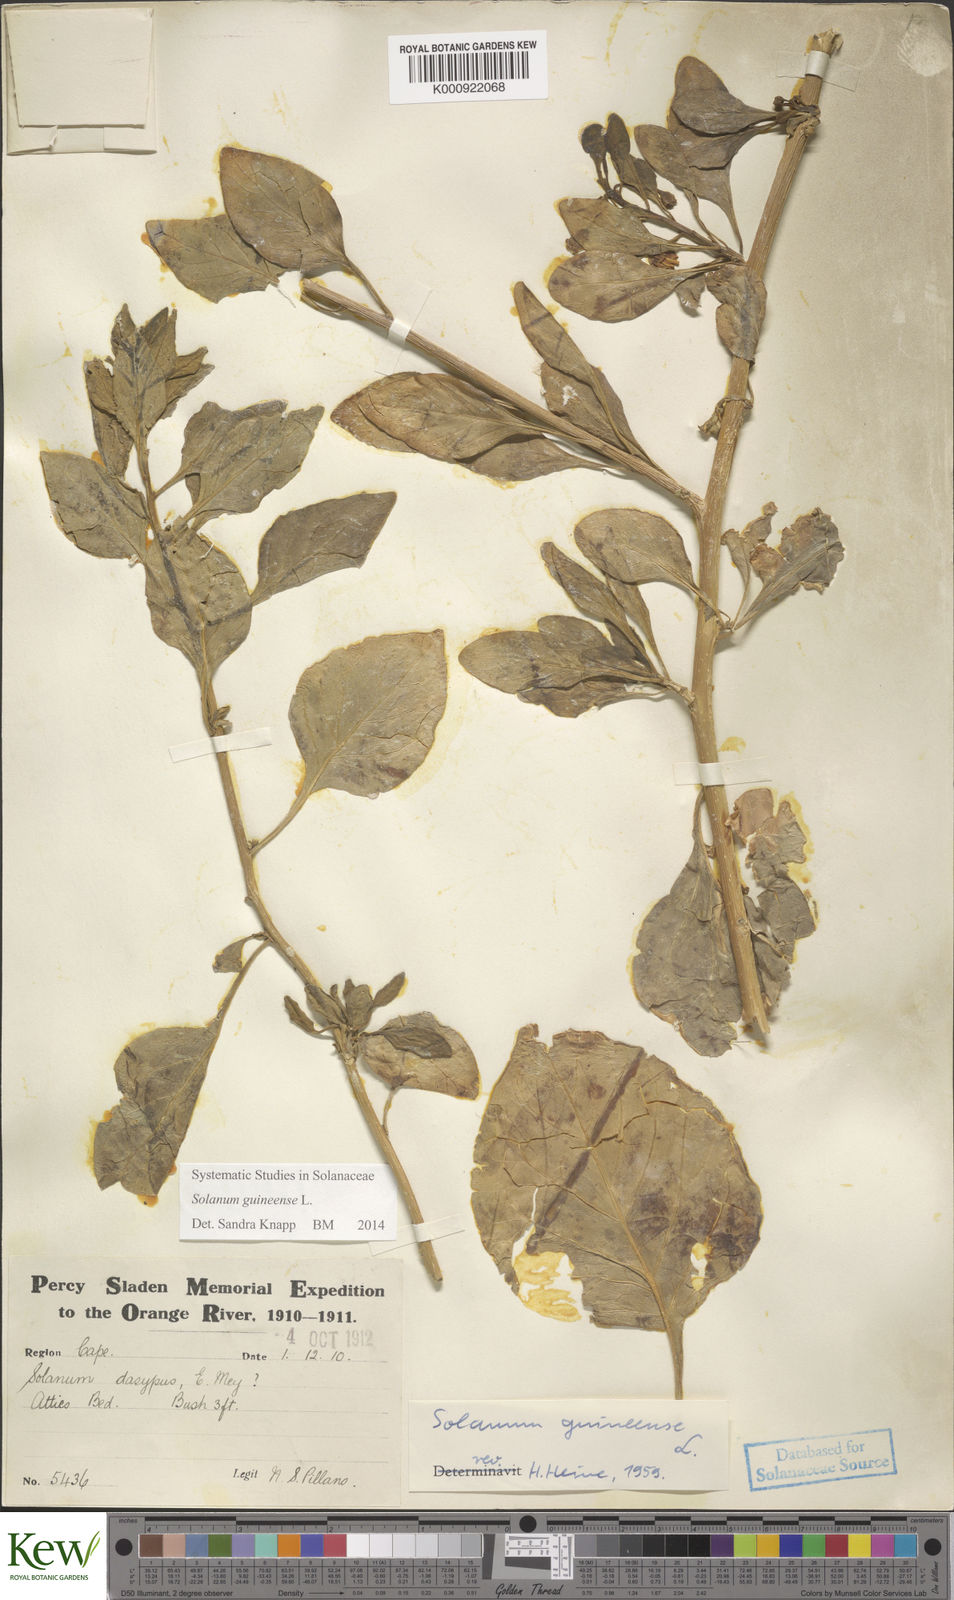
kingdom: Plantae
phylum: Tracheophyta
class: Magnoliopsida
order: Solanales
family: Solanaceae
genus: Solanum
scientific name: Solanum guineense
